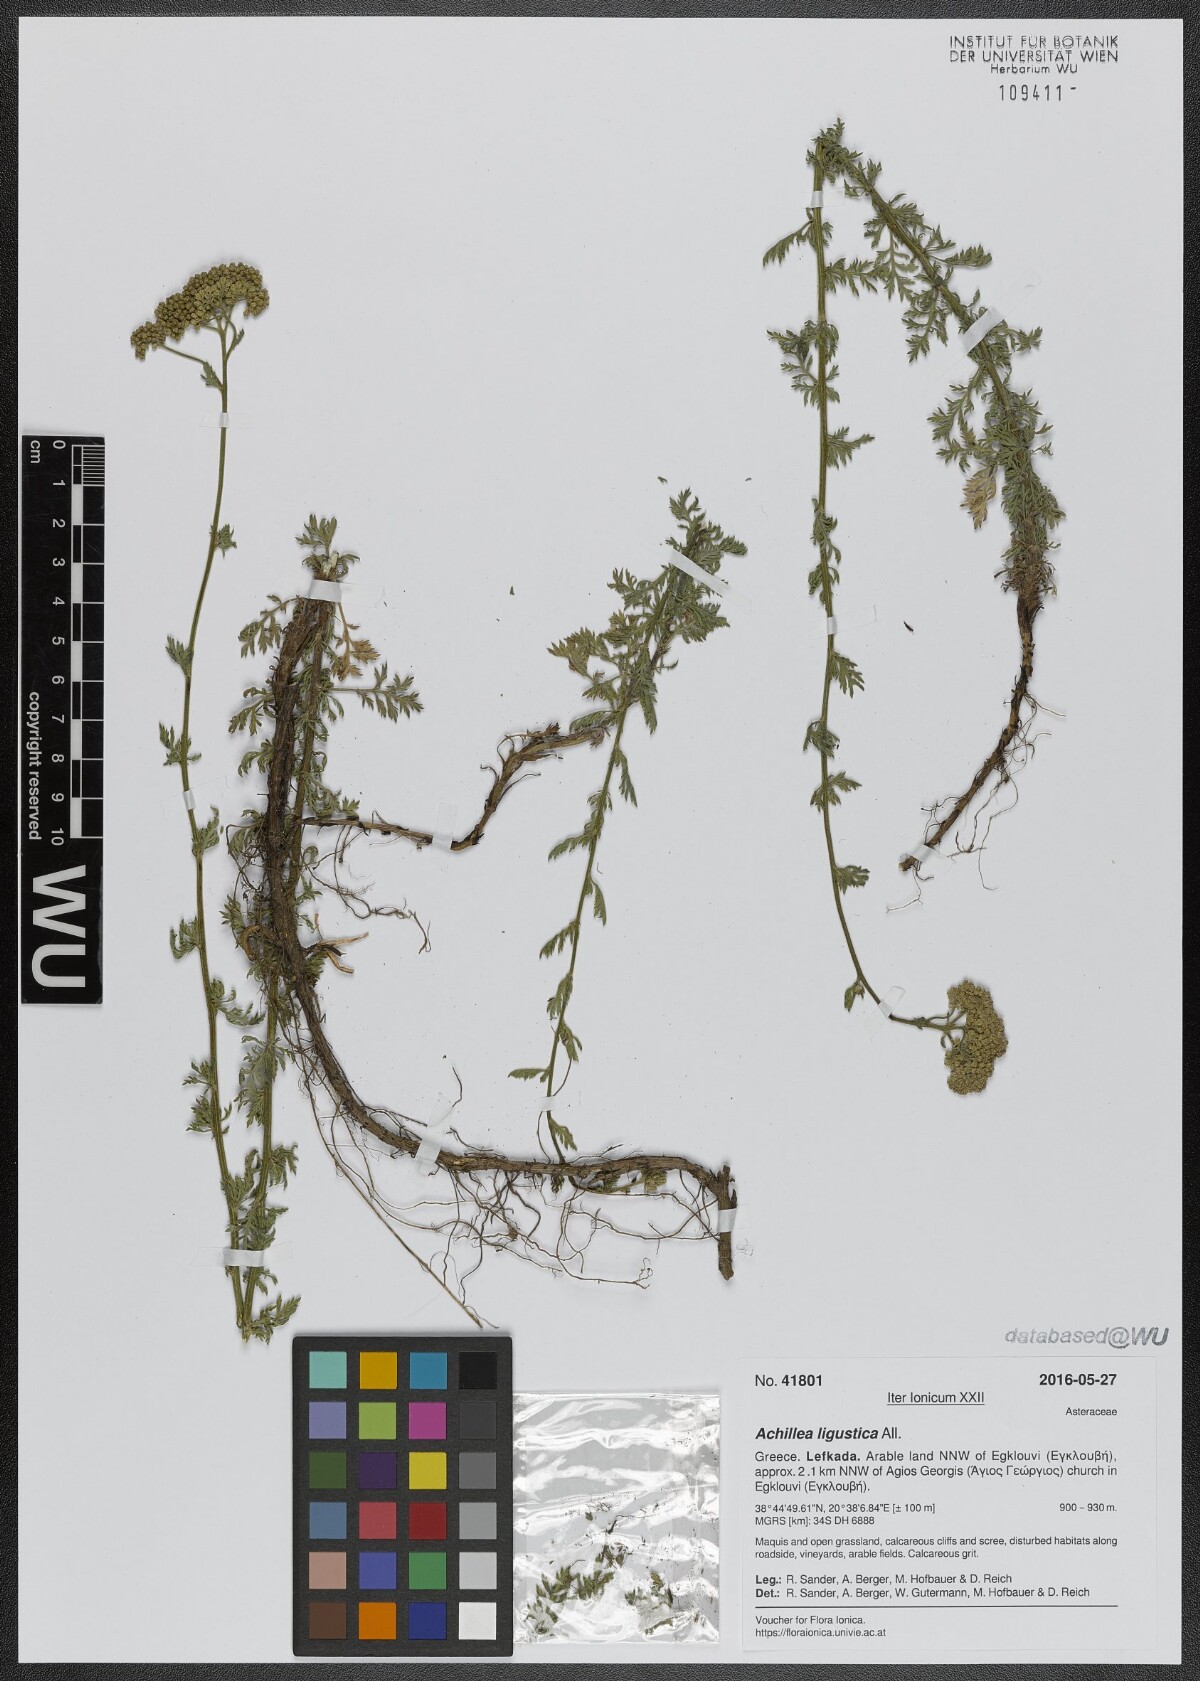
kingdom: Plantae
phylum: Tracheophyta
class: Magnoliopsida
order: Asterales
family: Asteraceae
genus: Achillea
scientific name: Achillea ligustica
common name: Southern yarrow
